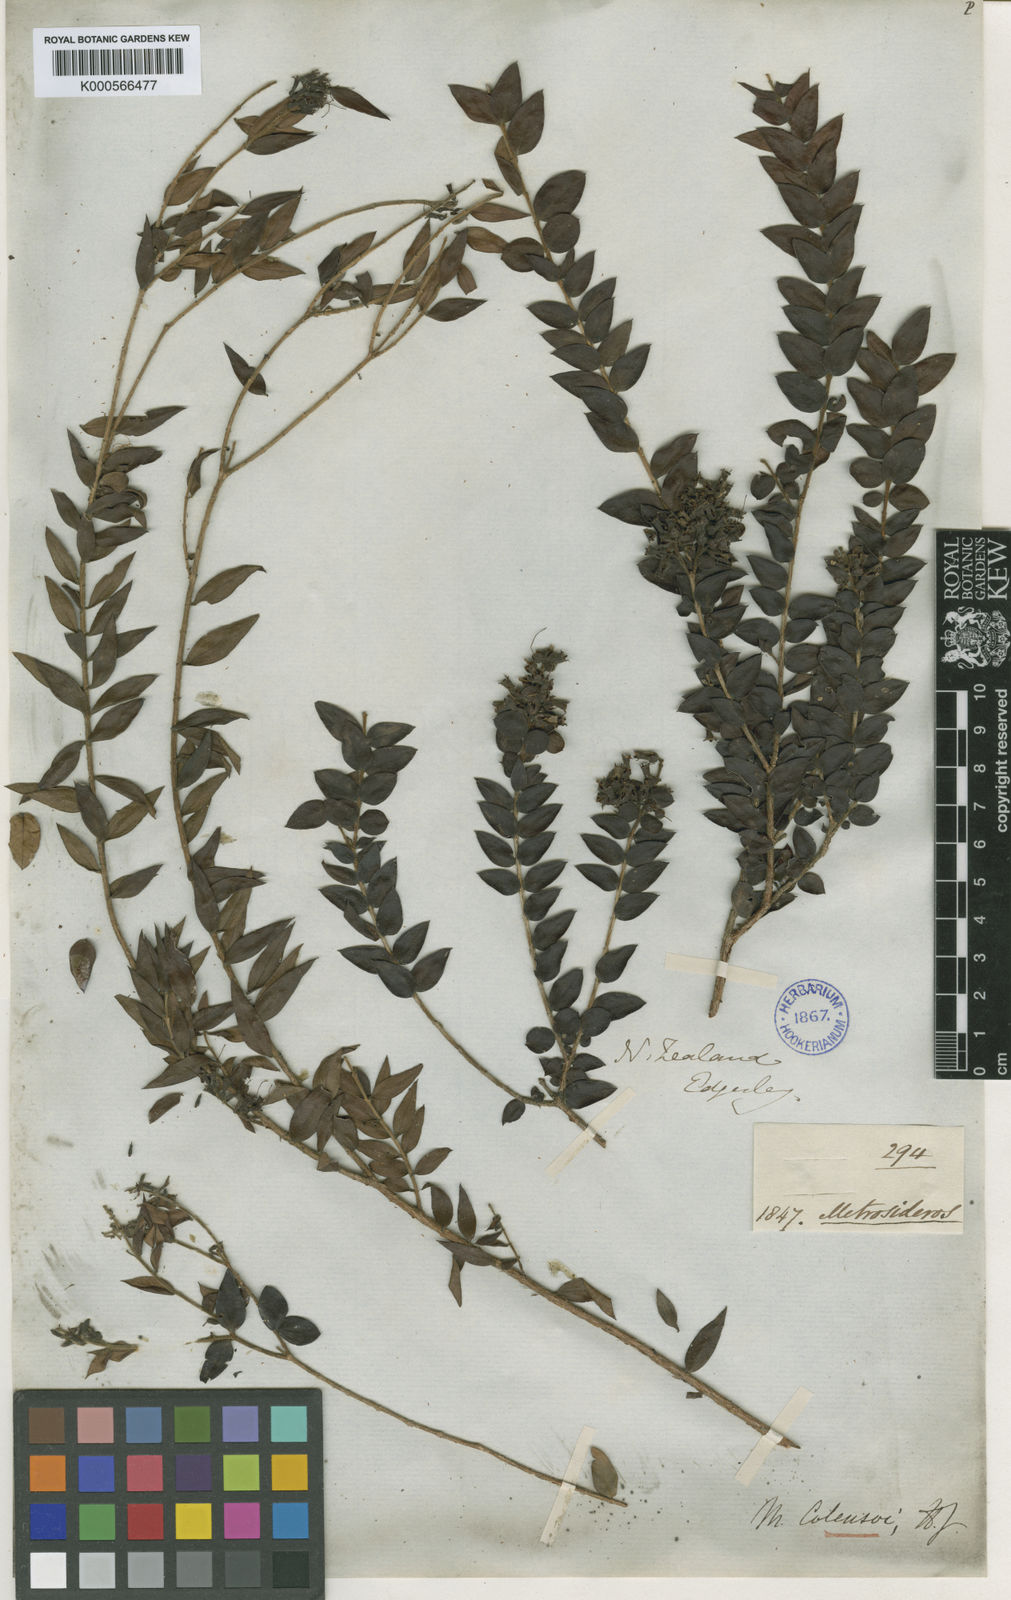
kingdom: Plantae
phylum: Tracheophyta
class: Magnoliopsida
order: Myrtales
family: Myrtaceae
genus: Metrosideros
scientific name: Metrosideros colensoi
